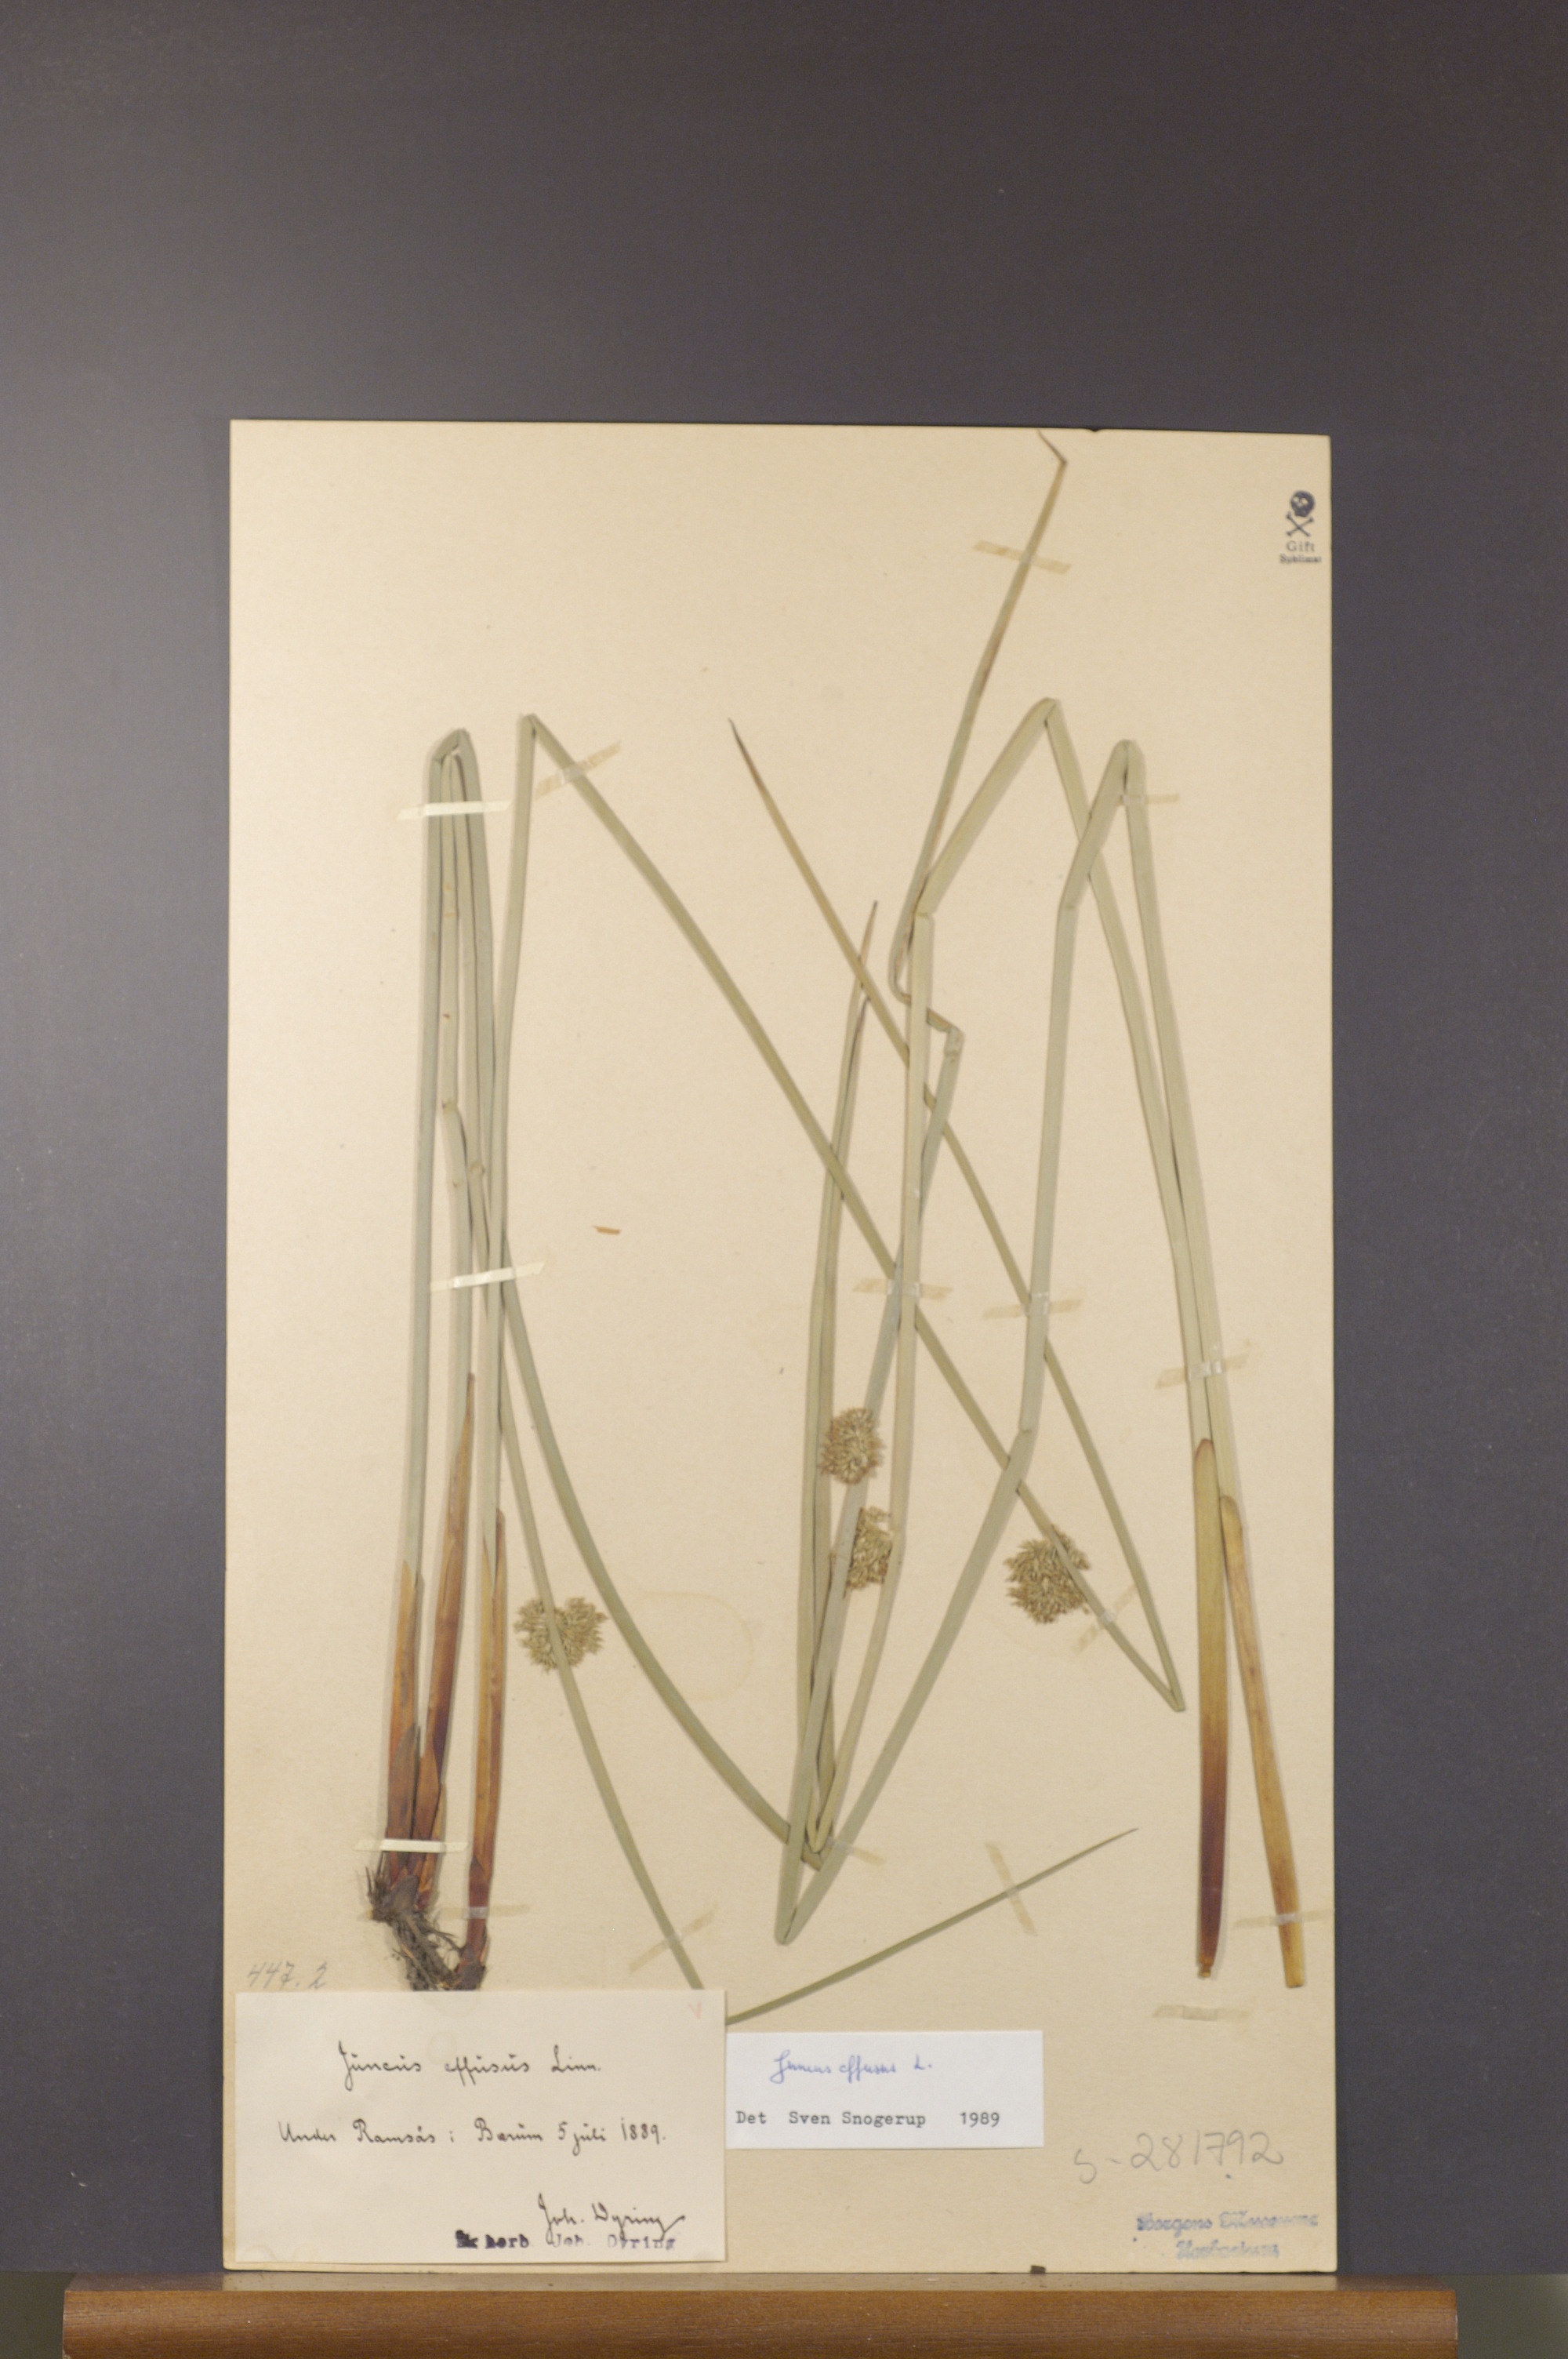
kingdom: Plantae
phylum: Tracheophyta
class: Liliopsida
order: Poales
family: Juncaceae
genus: Juncus
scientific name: Juncus effusus
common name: Soft rush
